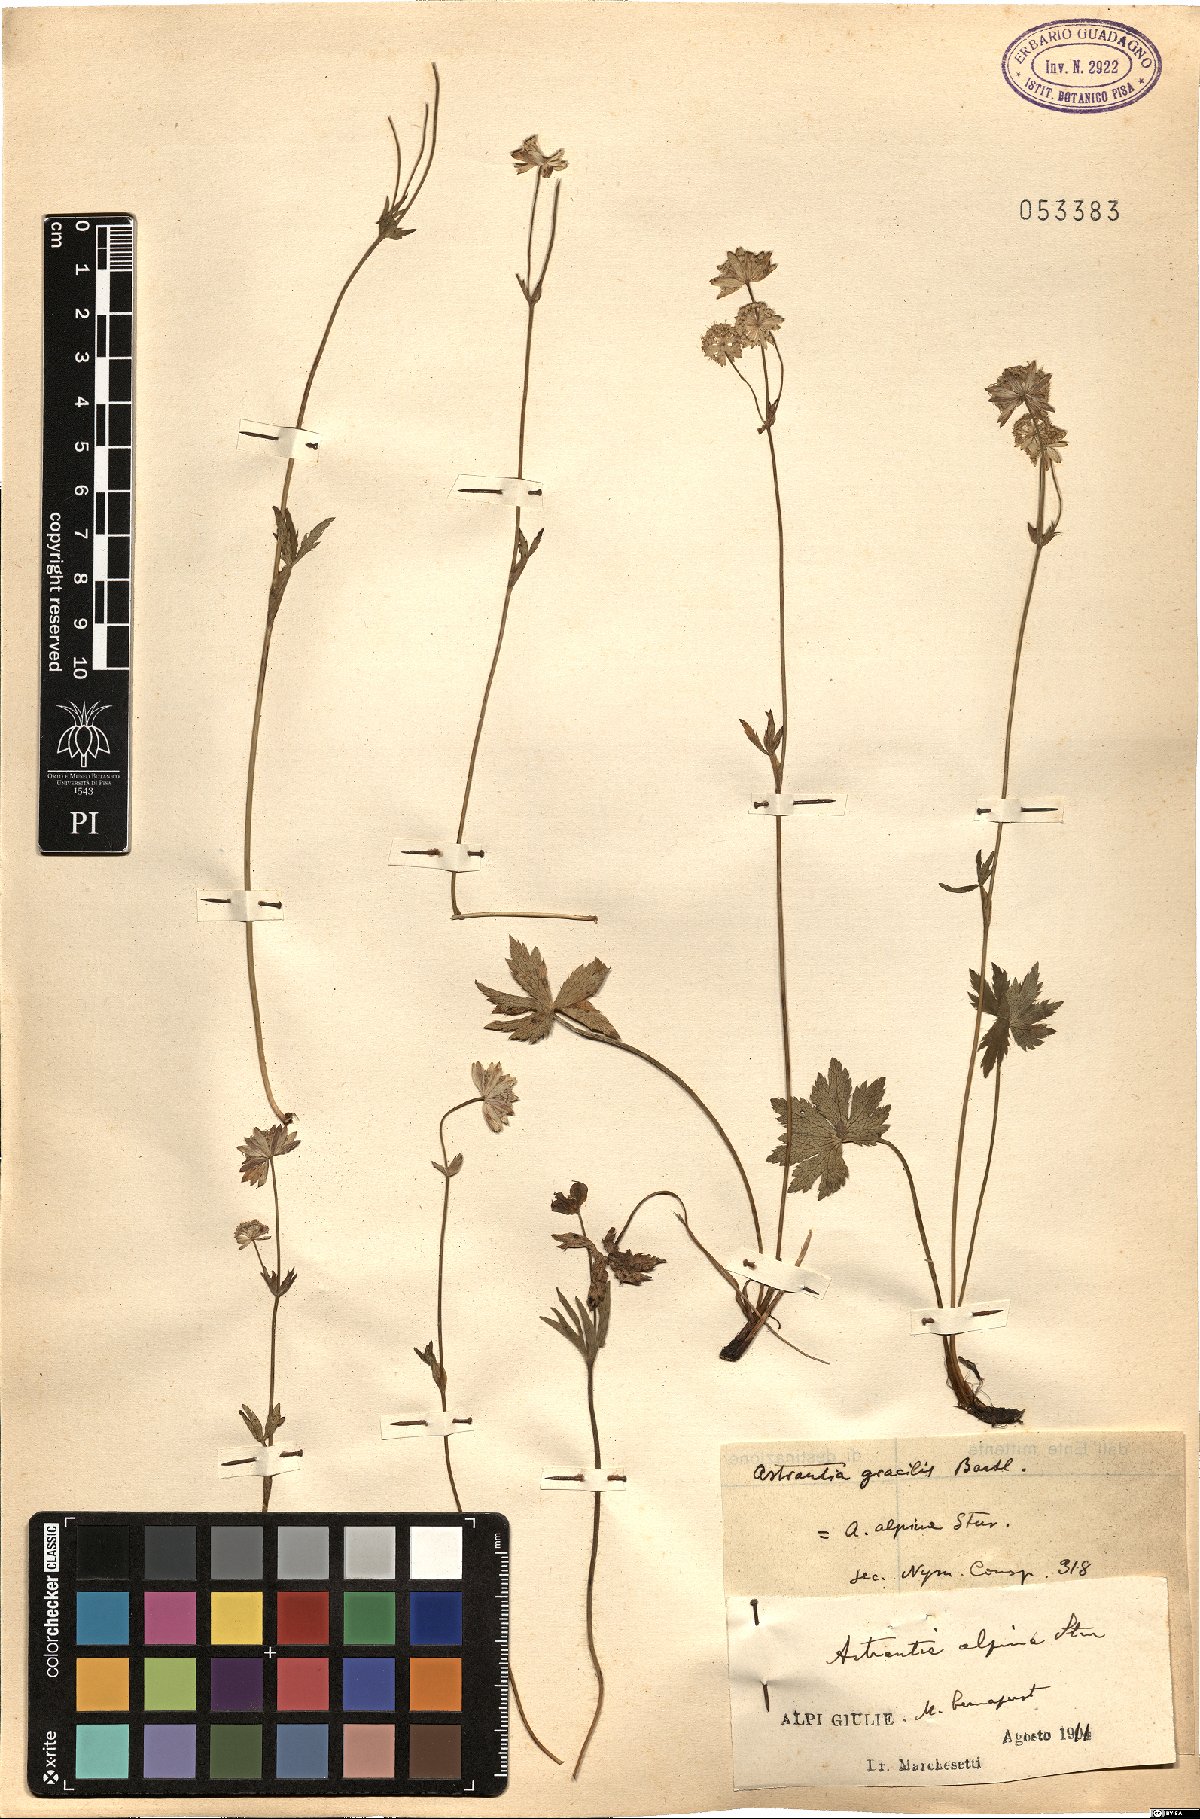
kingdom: Plantae
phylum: Tracheophyta
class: Magnoliopsida
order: Apiales
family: Apiaceae
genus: Astrantia
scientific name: Astrantia bavarica
